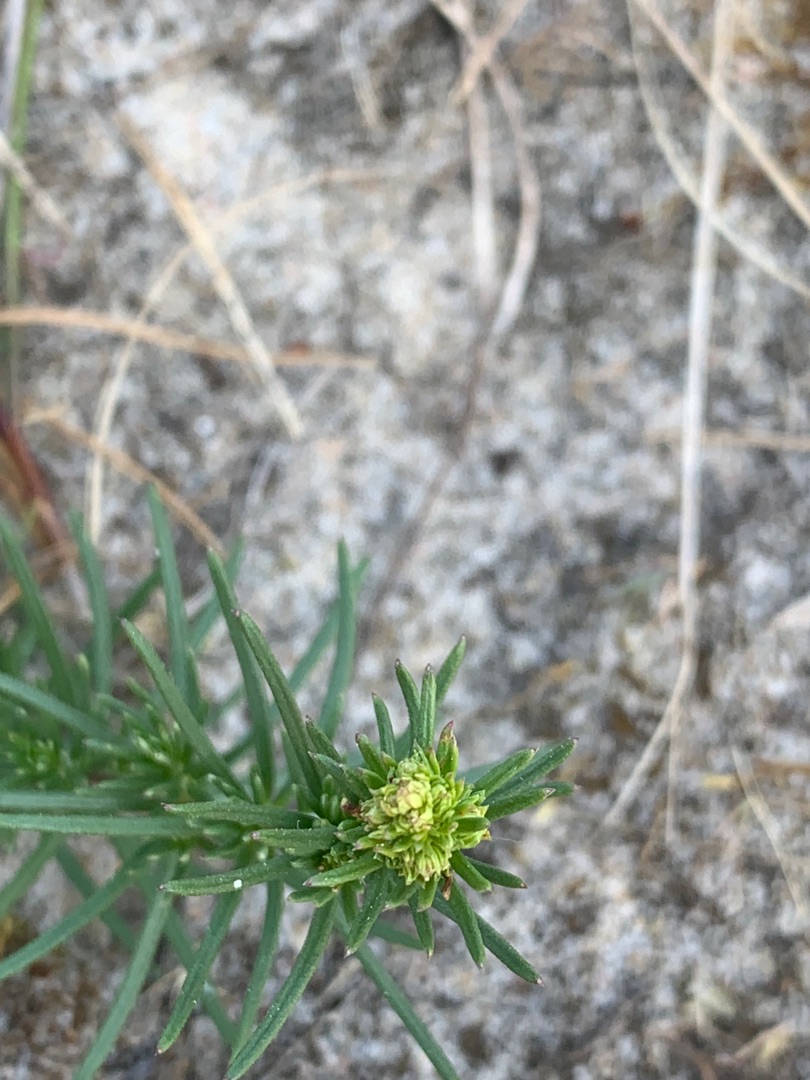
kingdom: Plantae
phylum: Tracheophyta
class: Magnoliopsida
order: Gentianales
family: Rubiaceae
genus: Galium
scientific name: Galium verum
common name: Gul snerre
